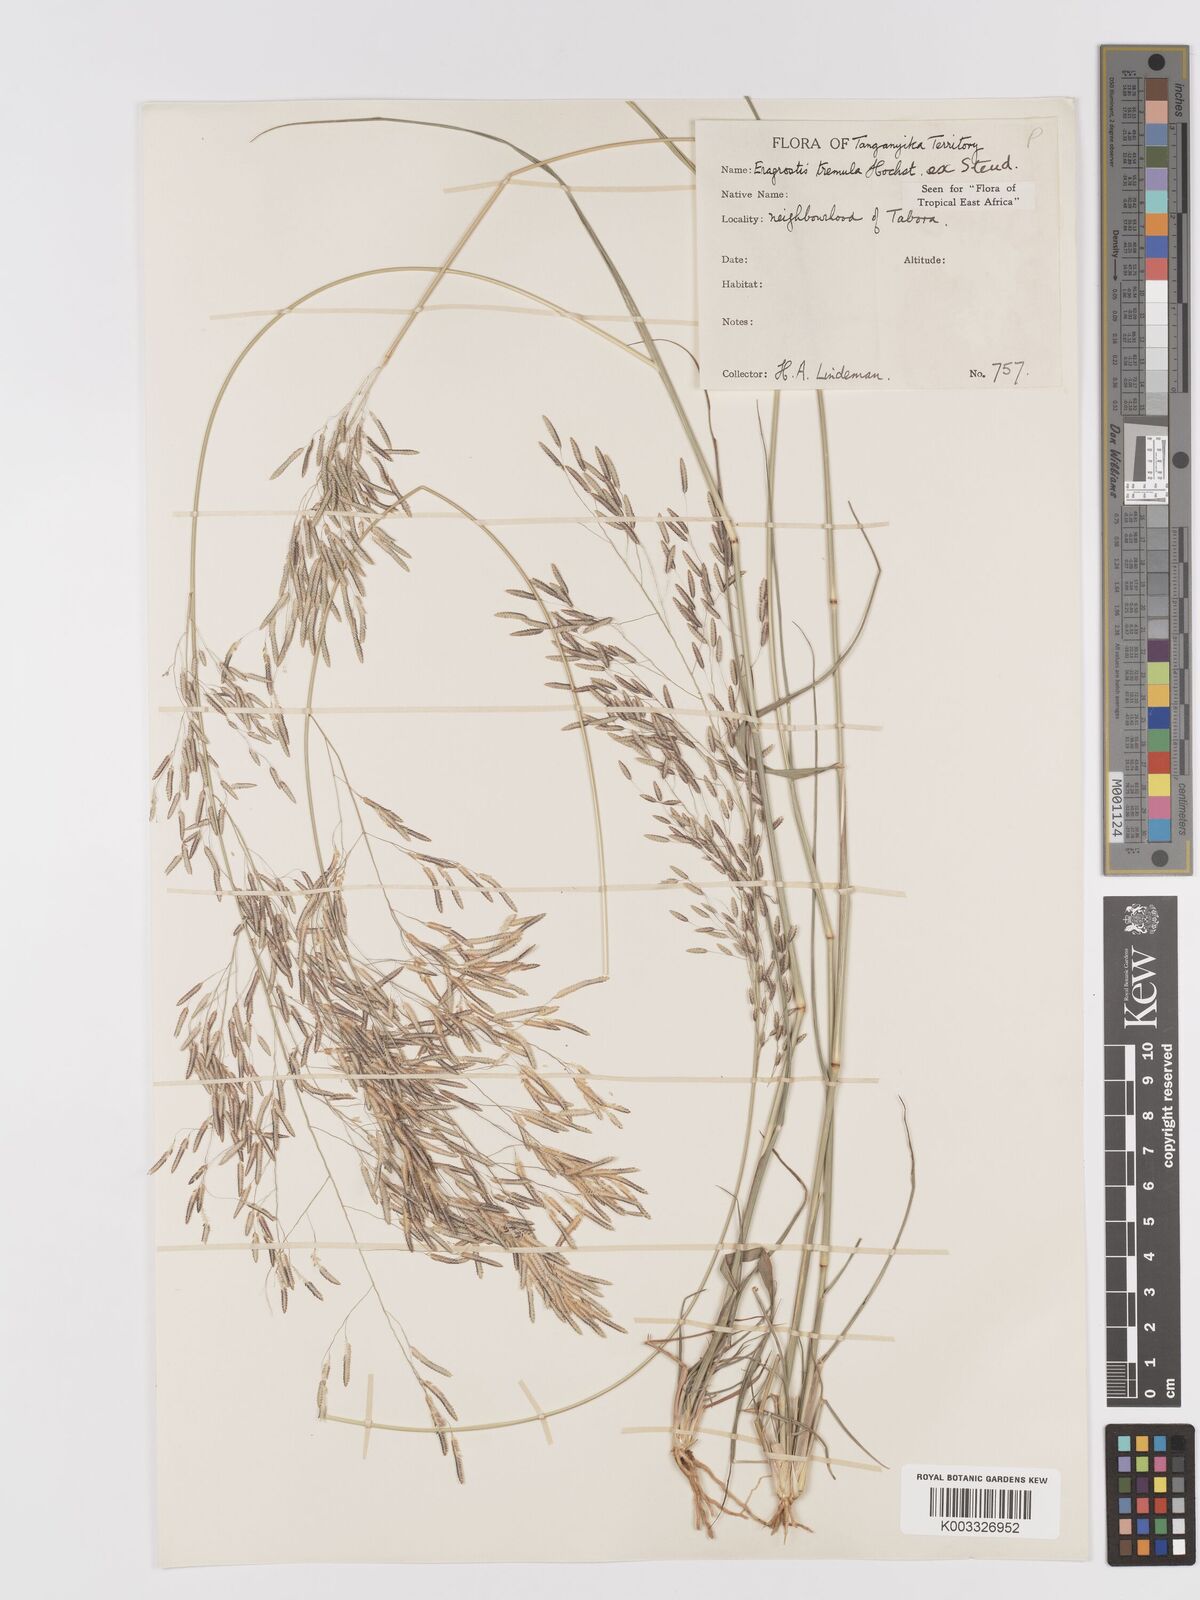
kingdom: Plantae
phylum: Tracheophyta
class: Liliopsida
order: Poales
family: Poaceae
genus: Eragrostis
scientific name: Eragrostis tremula
